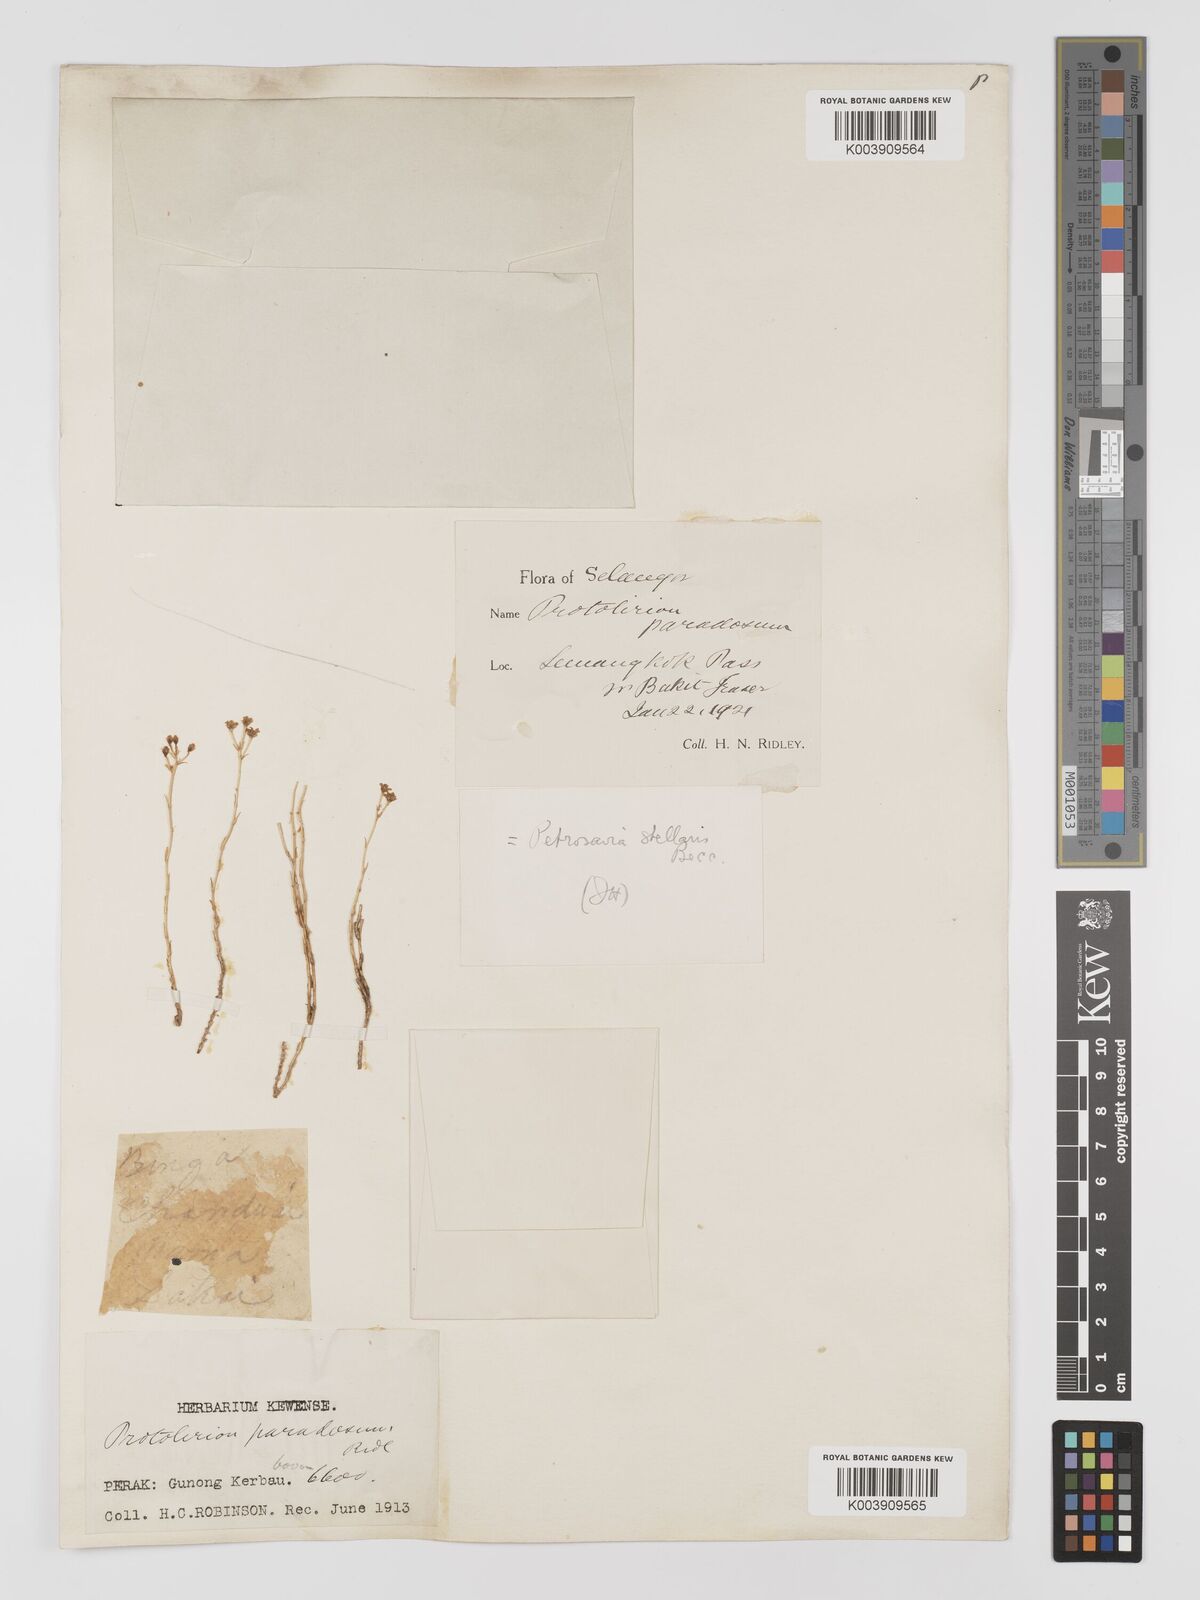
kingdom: Plantae
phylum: Tracheophyta
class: Liliopsida
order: Petrosaviales
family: Petrosaviaceae
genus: Petrosavia
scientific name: Petrosavia stellaris
